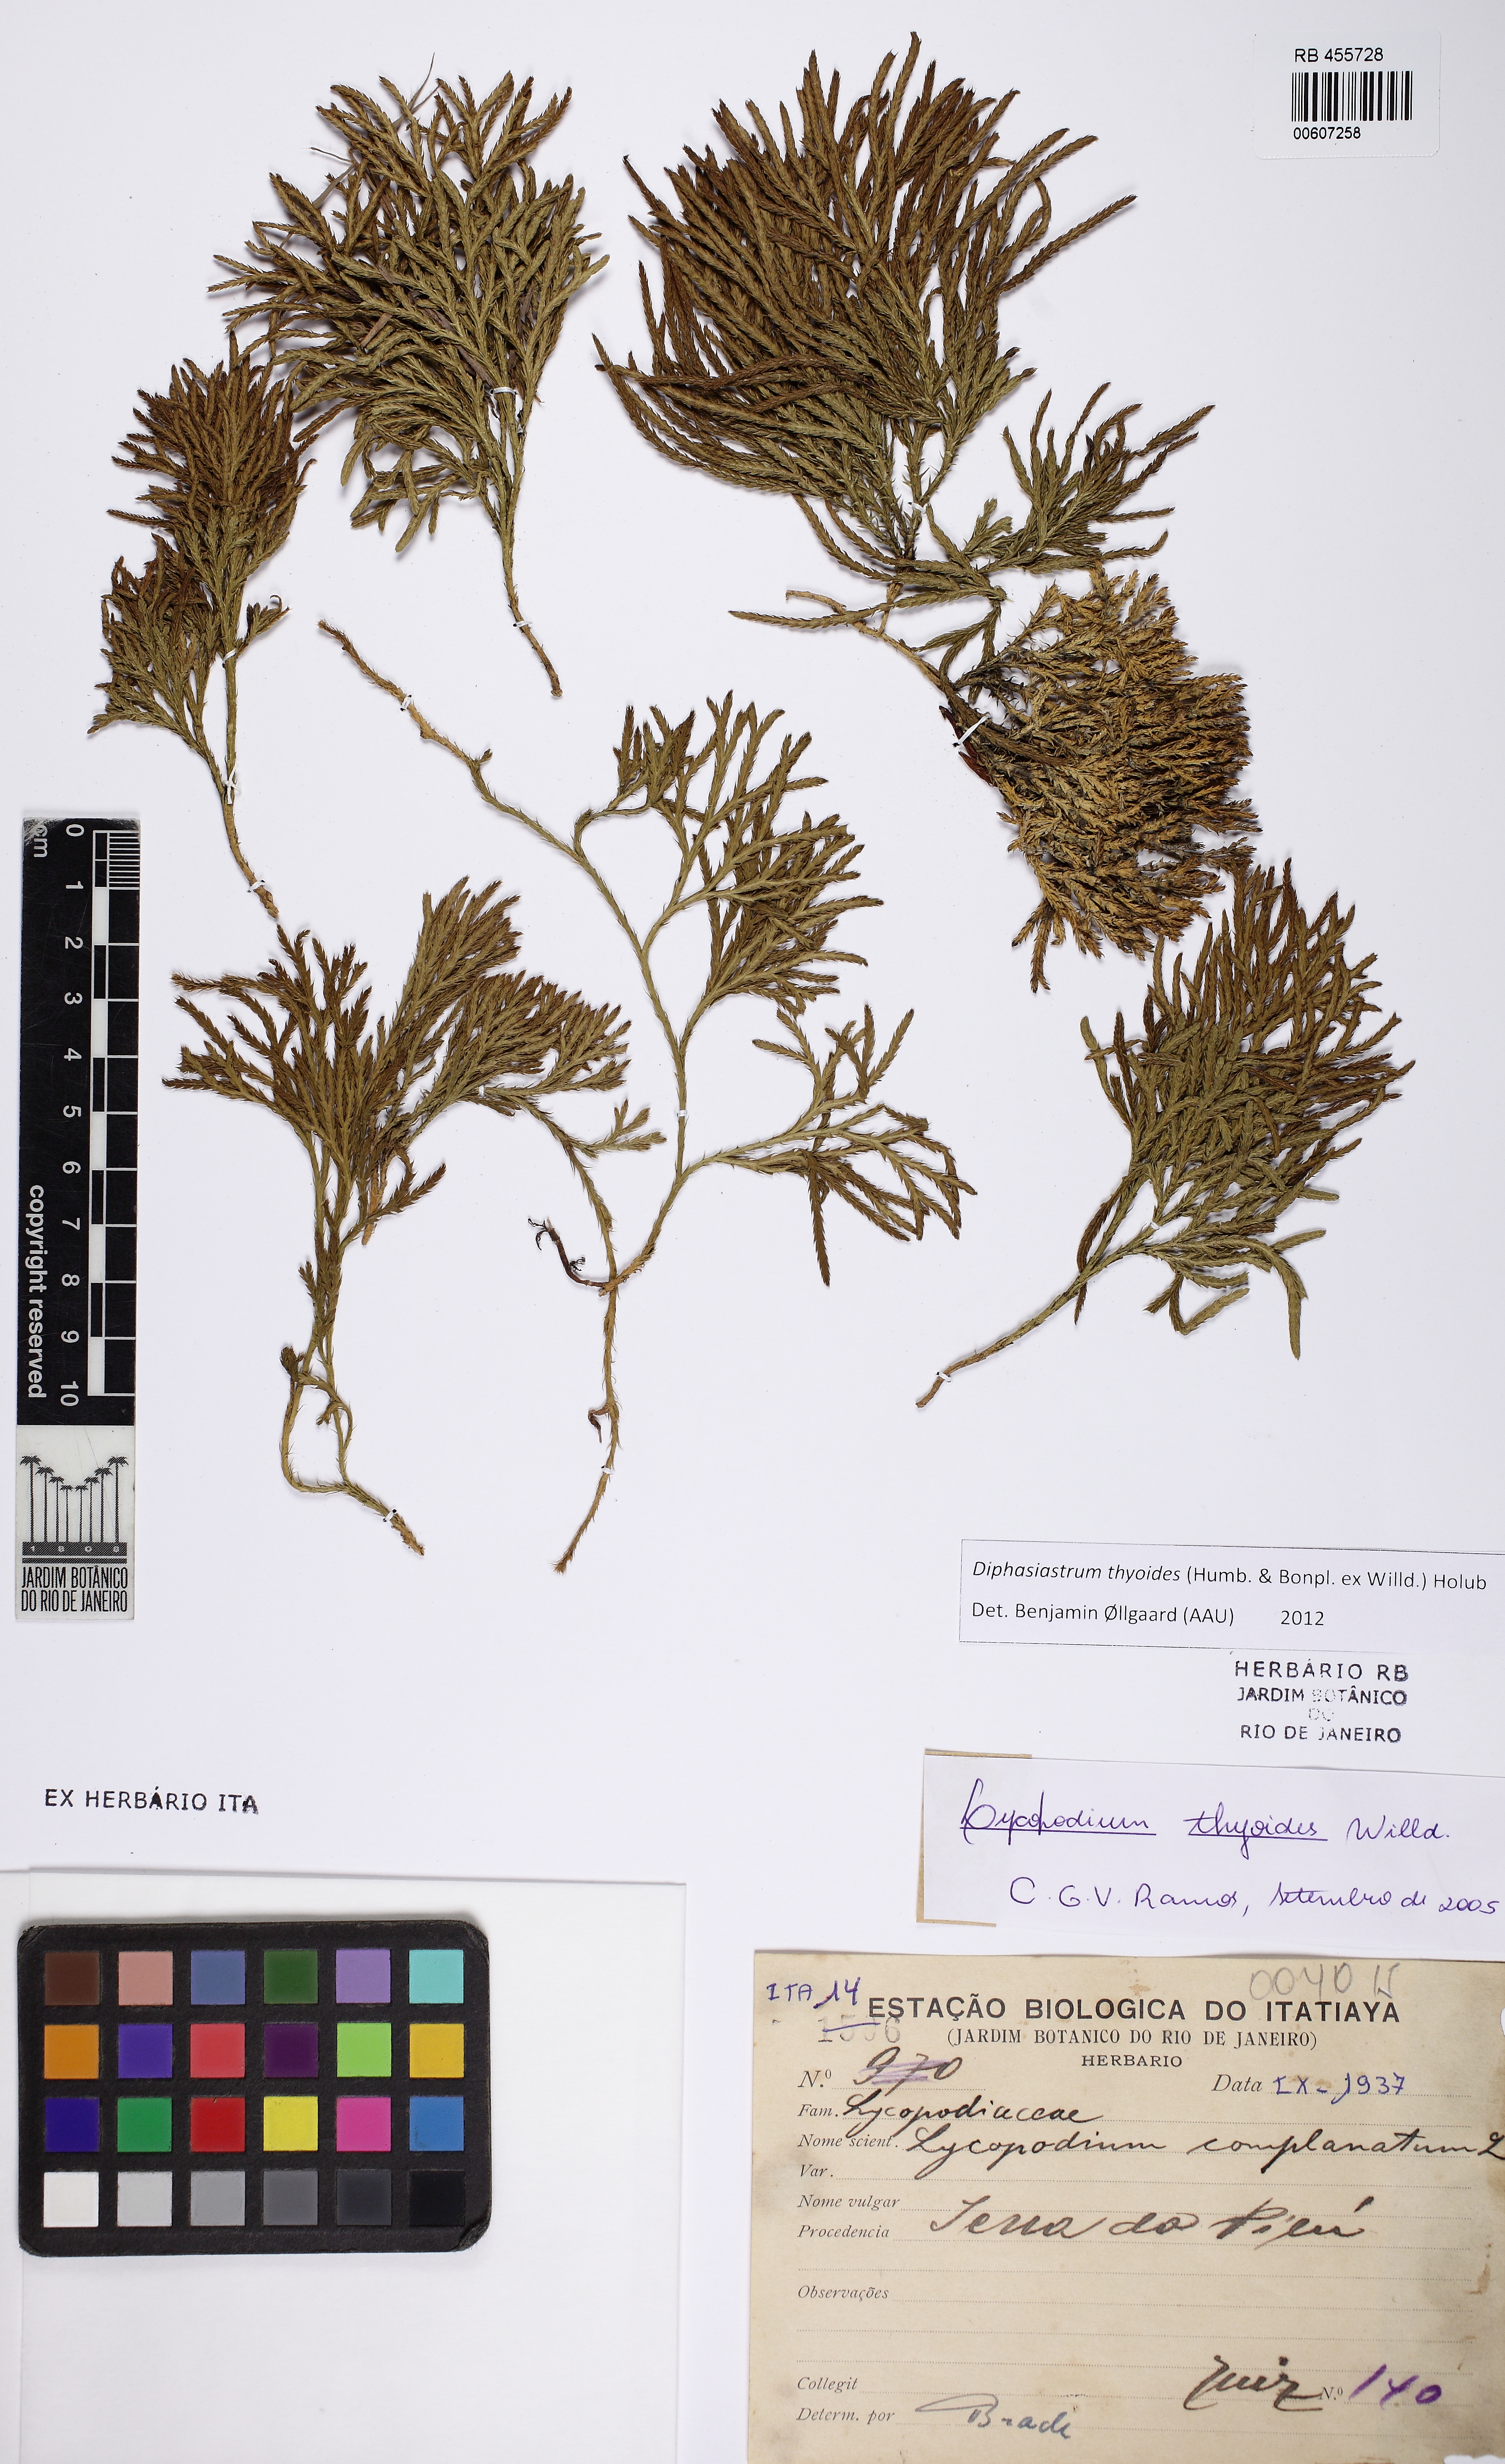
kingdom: Plantae
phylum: Tracheophyta
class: Lycopodiopsida
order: Lycopodiales
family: Lycopodiaceae
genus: Diphasiastrum
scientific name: Diphasiastrum thyoides
